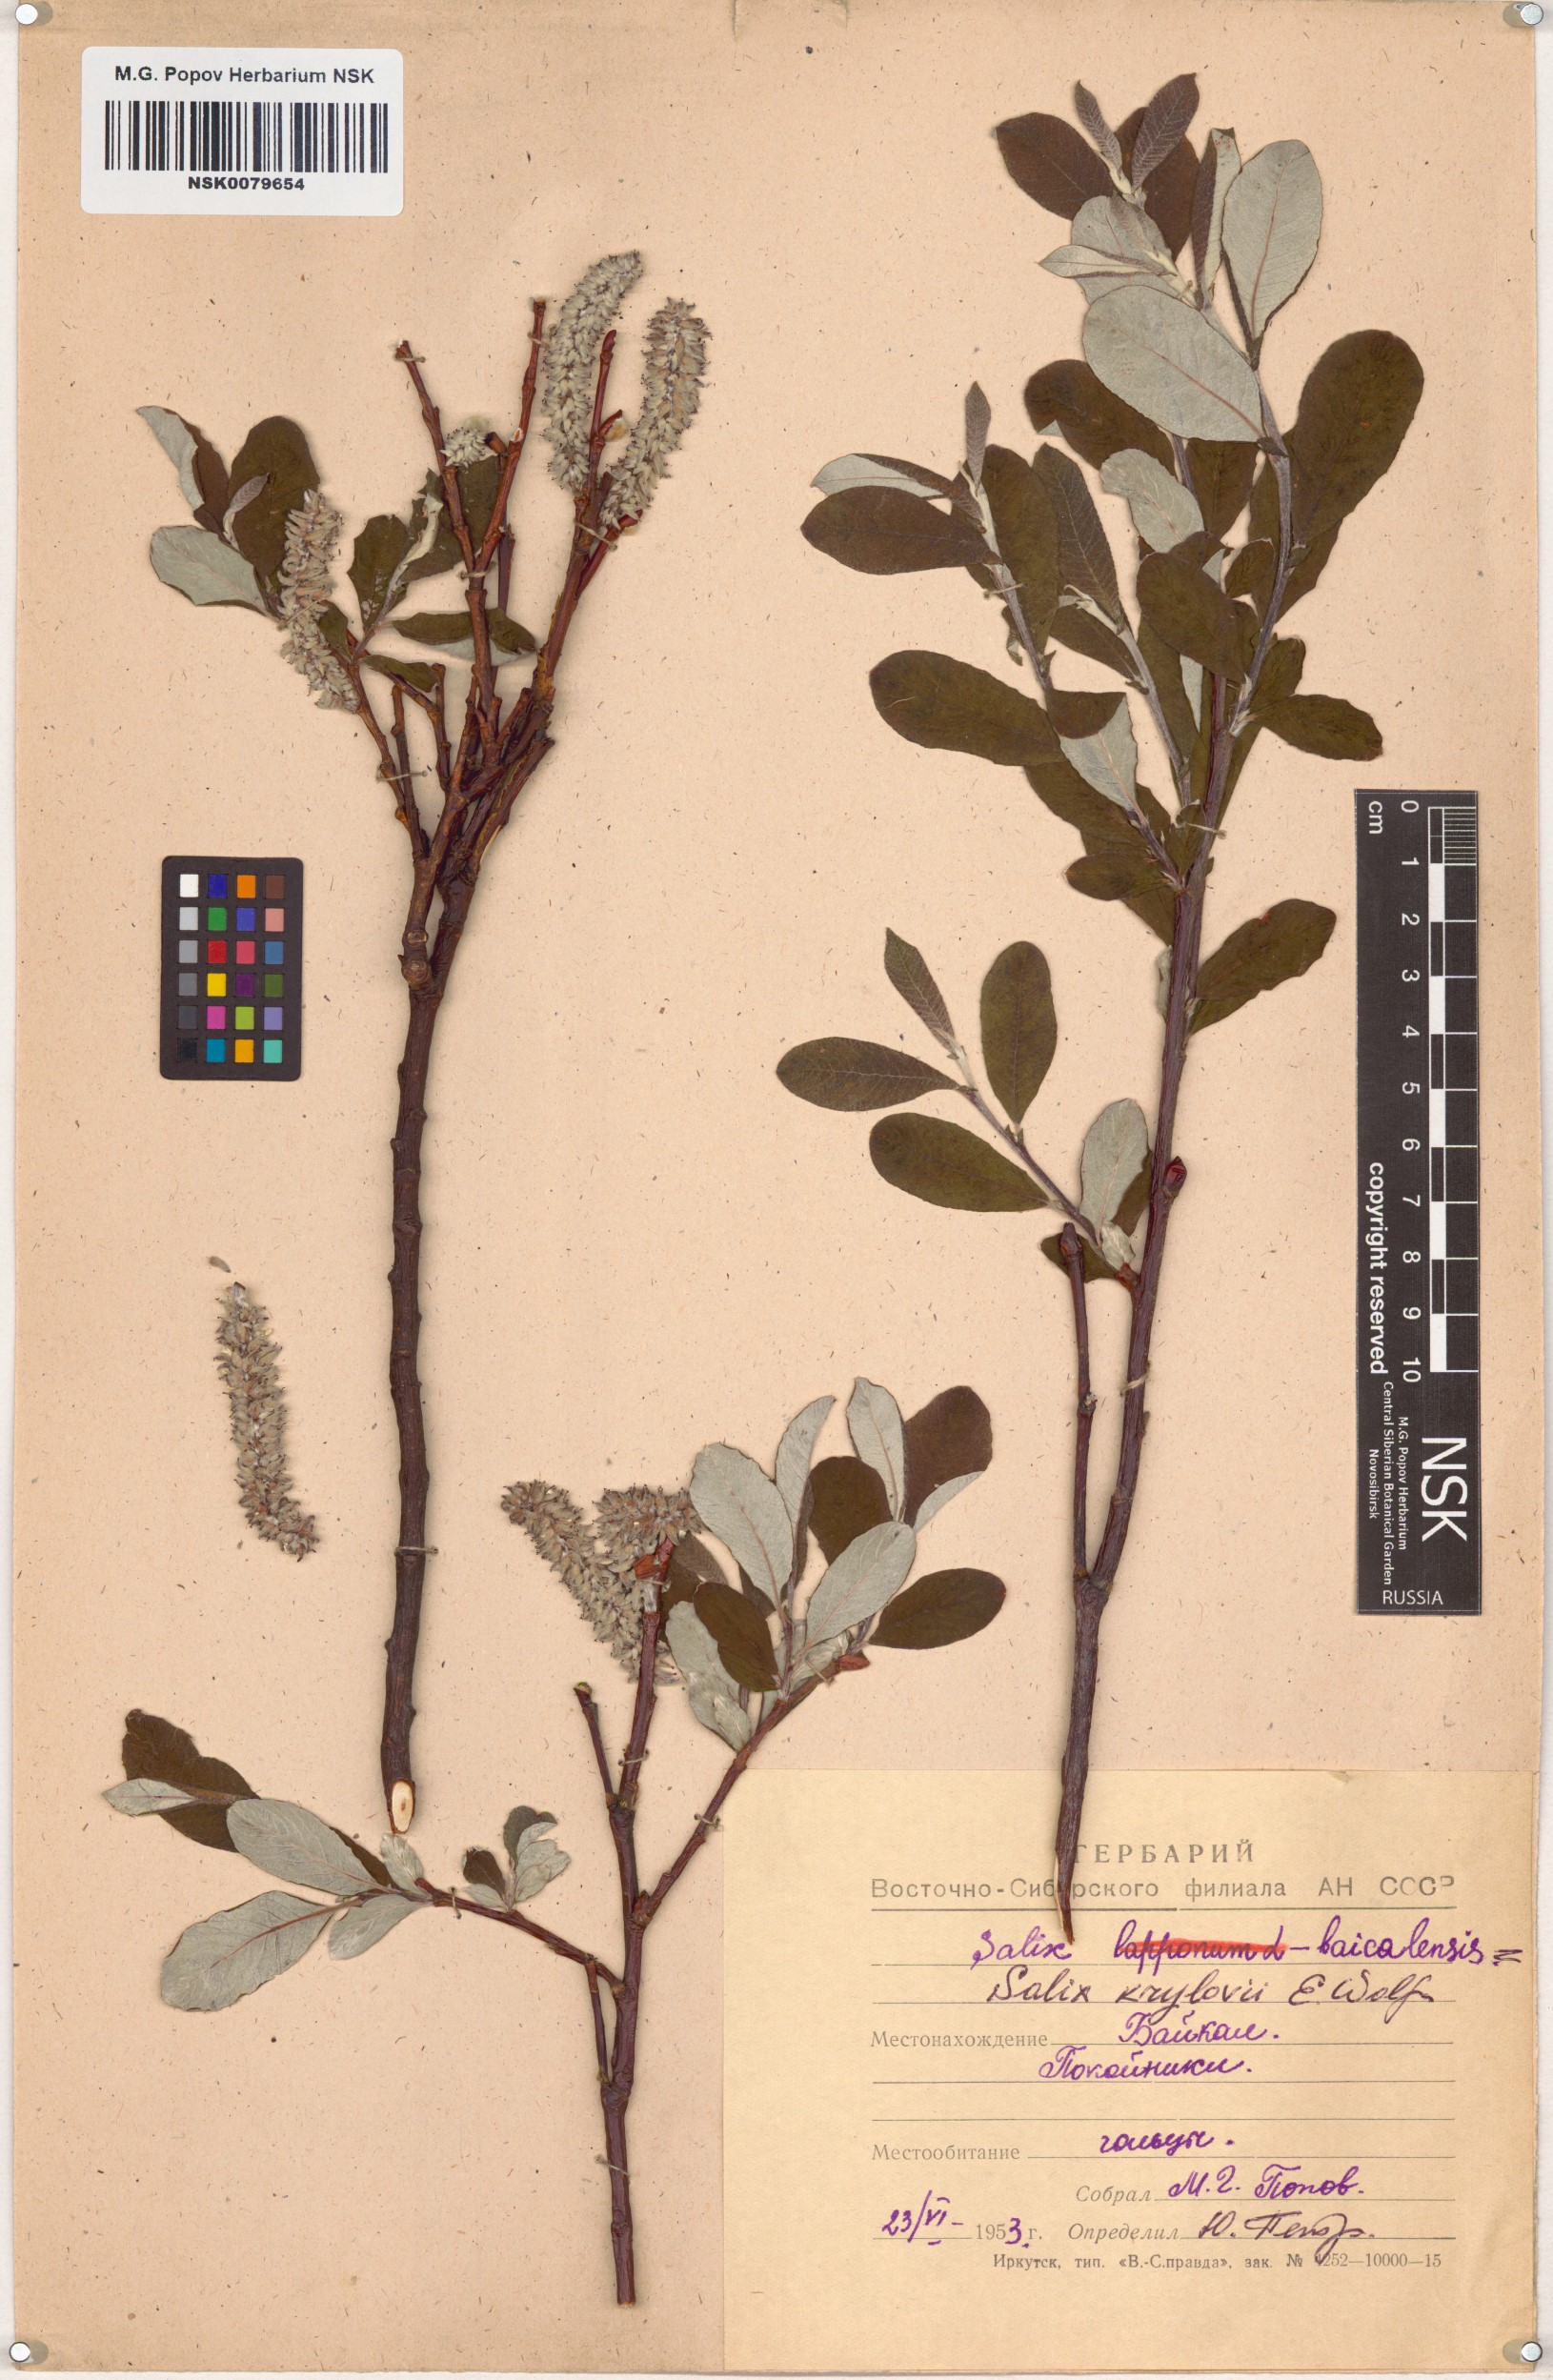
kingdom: Plantae
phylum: Tracheophyta
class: Magnoliopsida
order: Malpighiales
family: Salicaceae
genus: Salix
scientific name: Salix krylovii
